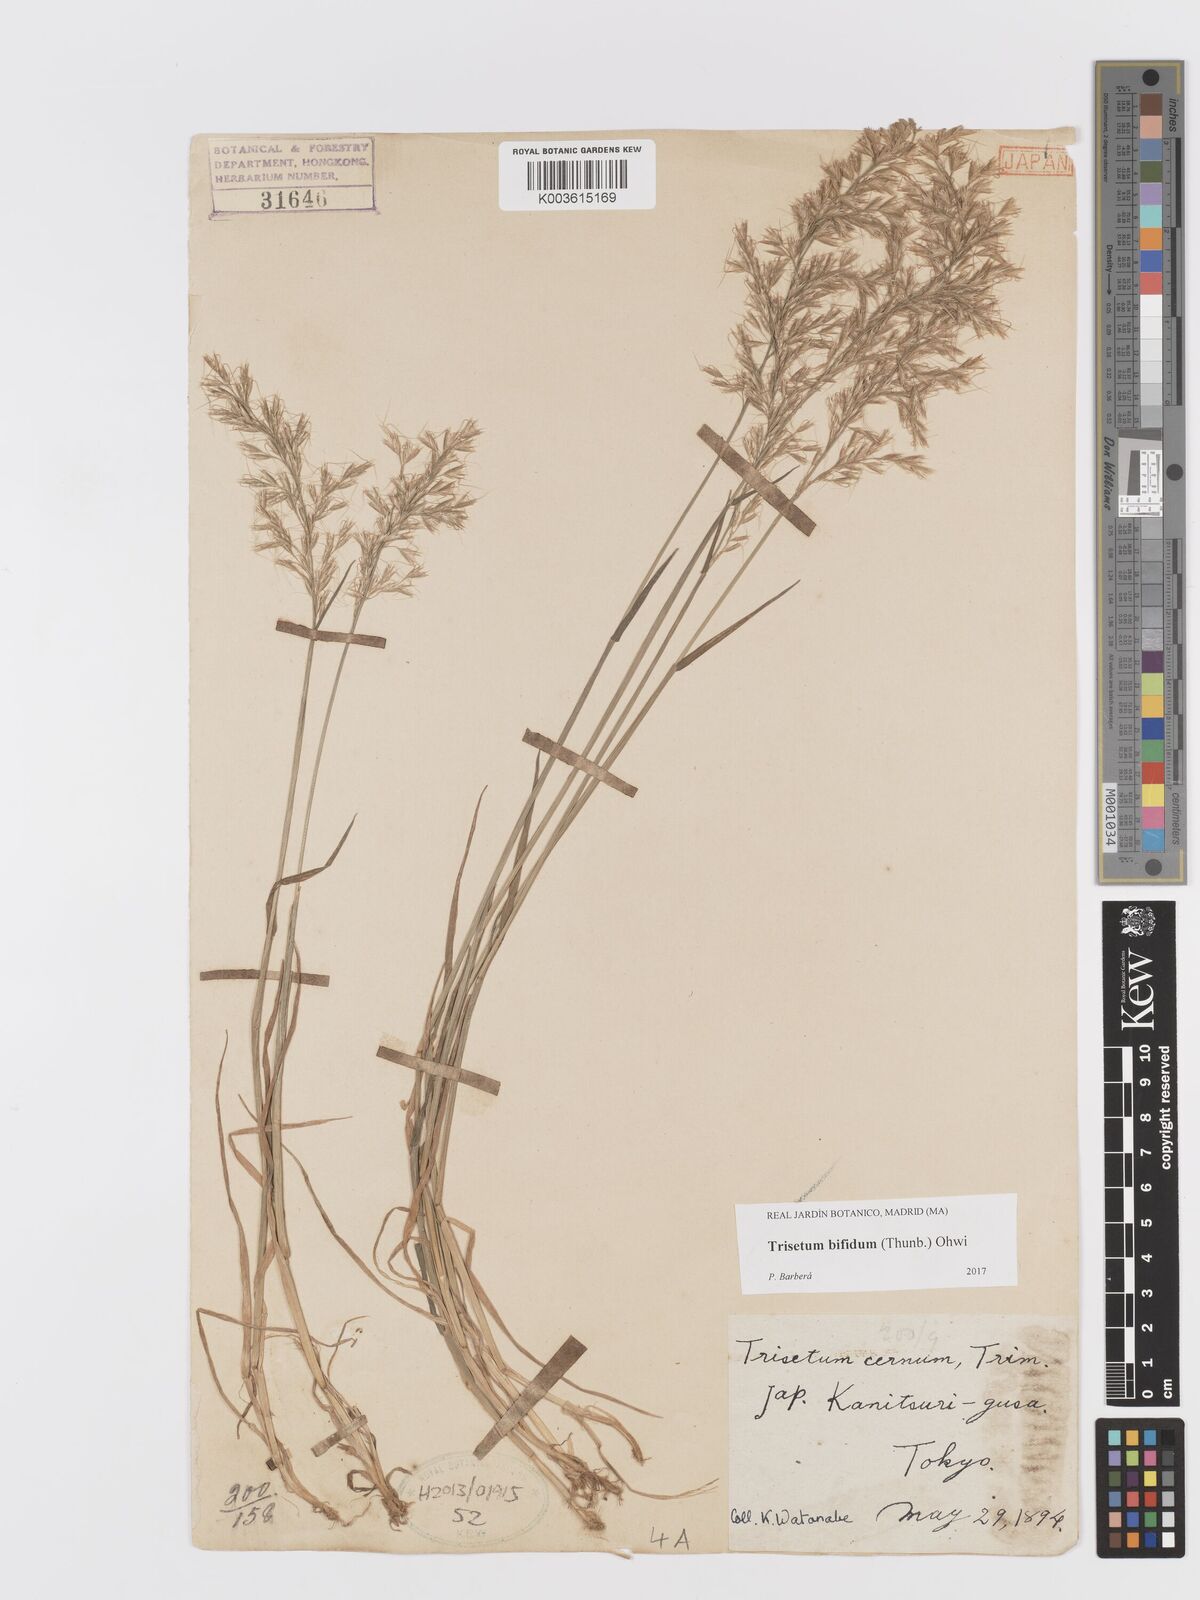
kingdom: Plantae
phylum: Tracheophyta
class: Liliopsida
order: Poales
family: Poaceae
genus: Sibirotrisetum
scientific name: Sibirotrisetum bifidum
